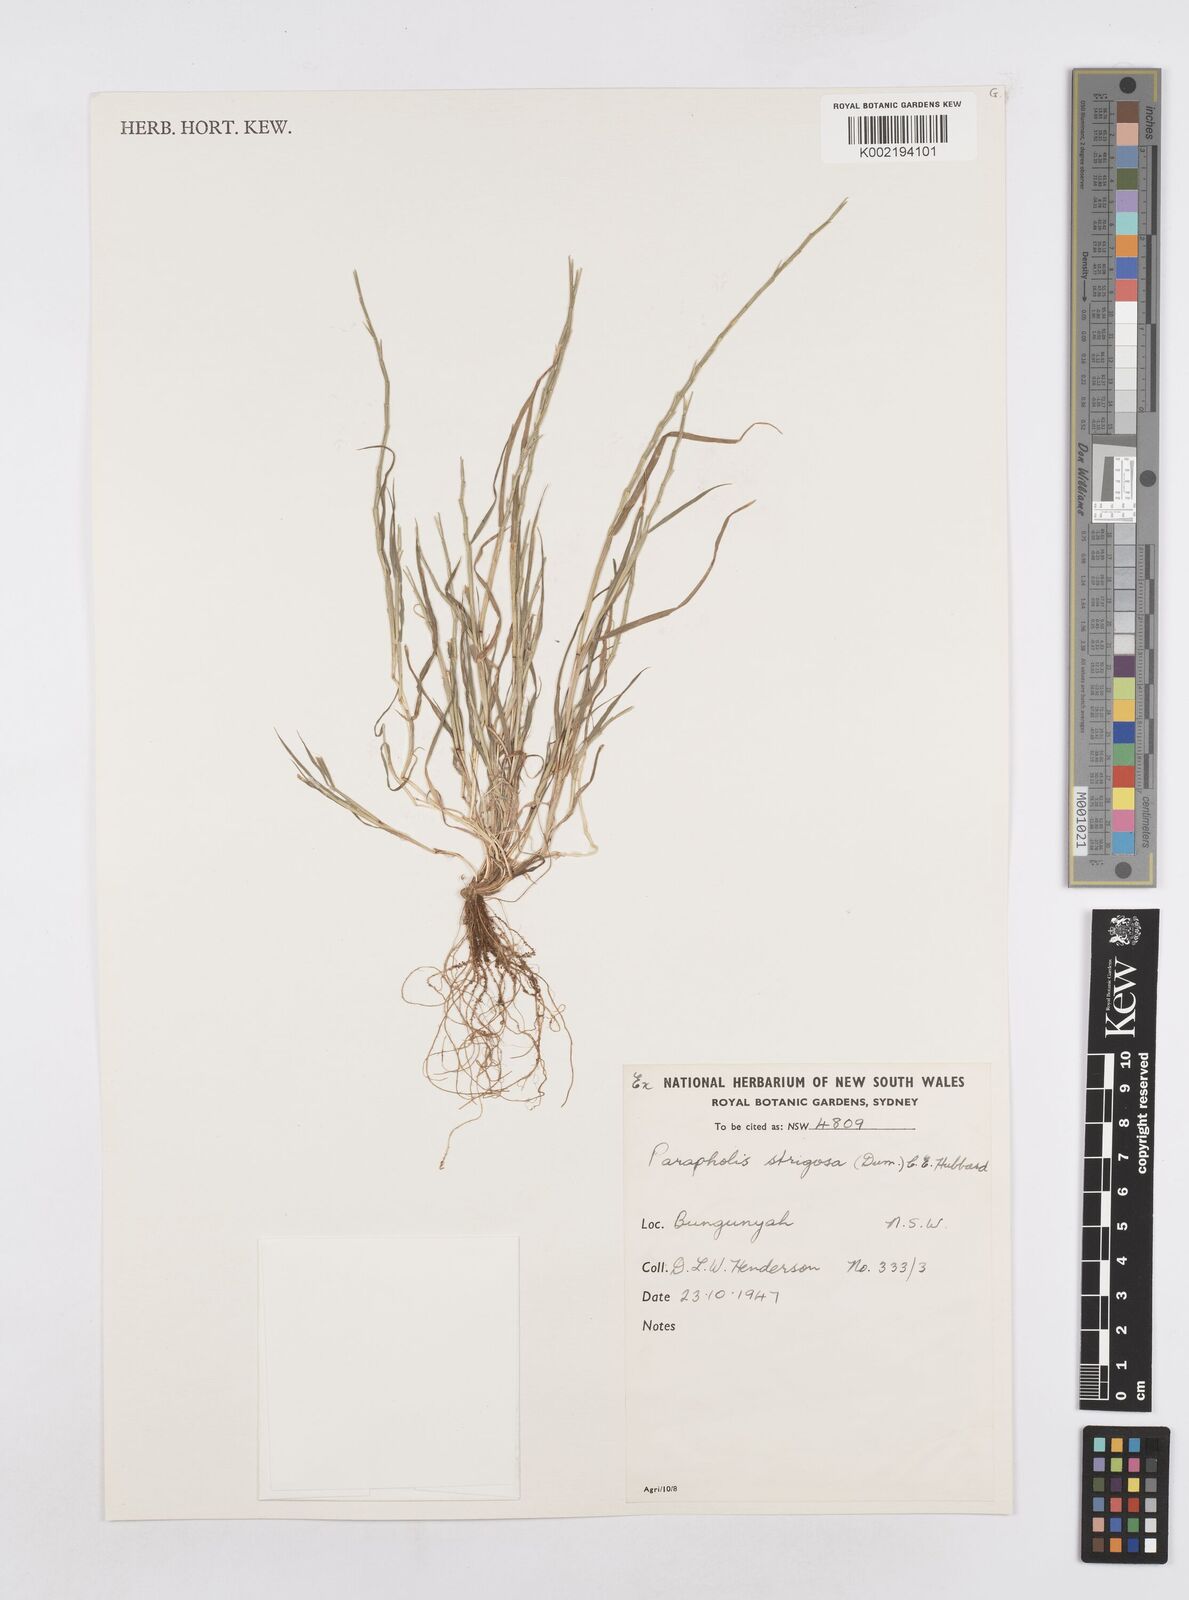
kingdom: Plantae
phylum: Tracheophyta
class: Liliopsida
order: Poales
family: Poaceae
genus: Parapholis
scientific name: Parapholis strigosa
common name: Hard-grass
